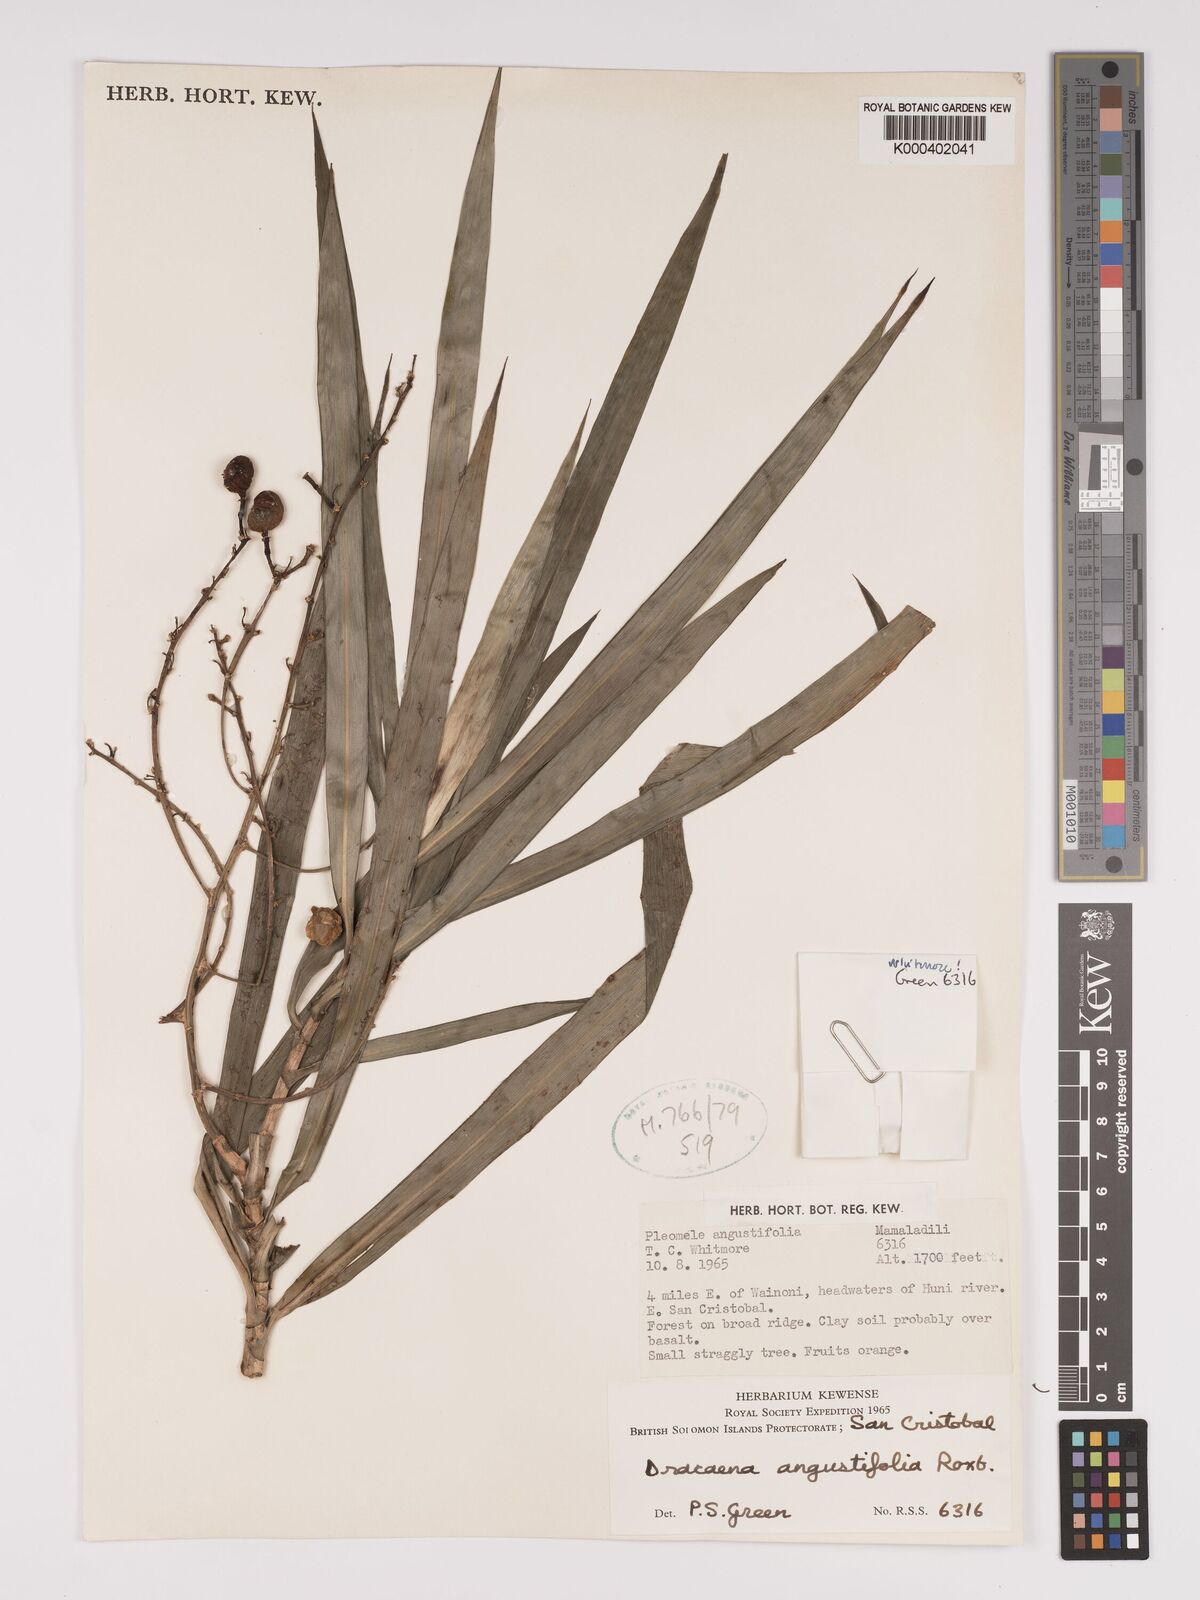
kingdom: Plantae
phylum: Tracheophyta
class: Liliopsida
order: Asparagales
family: Asparagaceae
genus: Dracaena
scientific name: Dracaena
